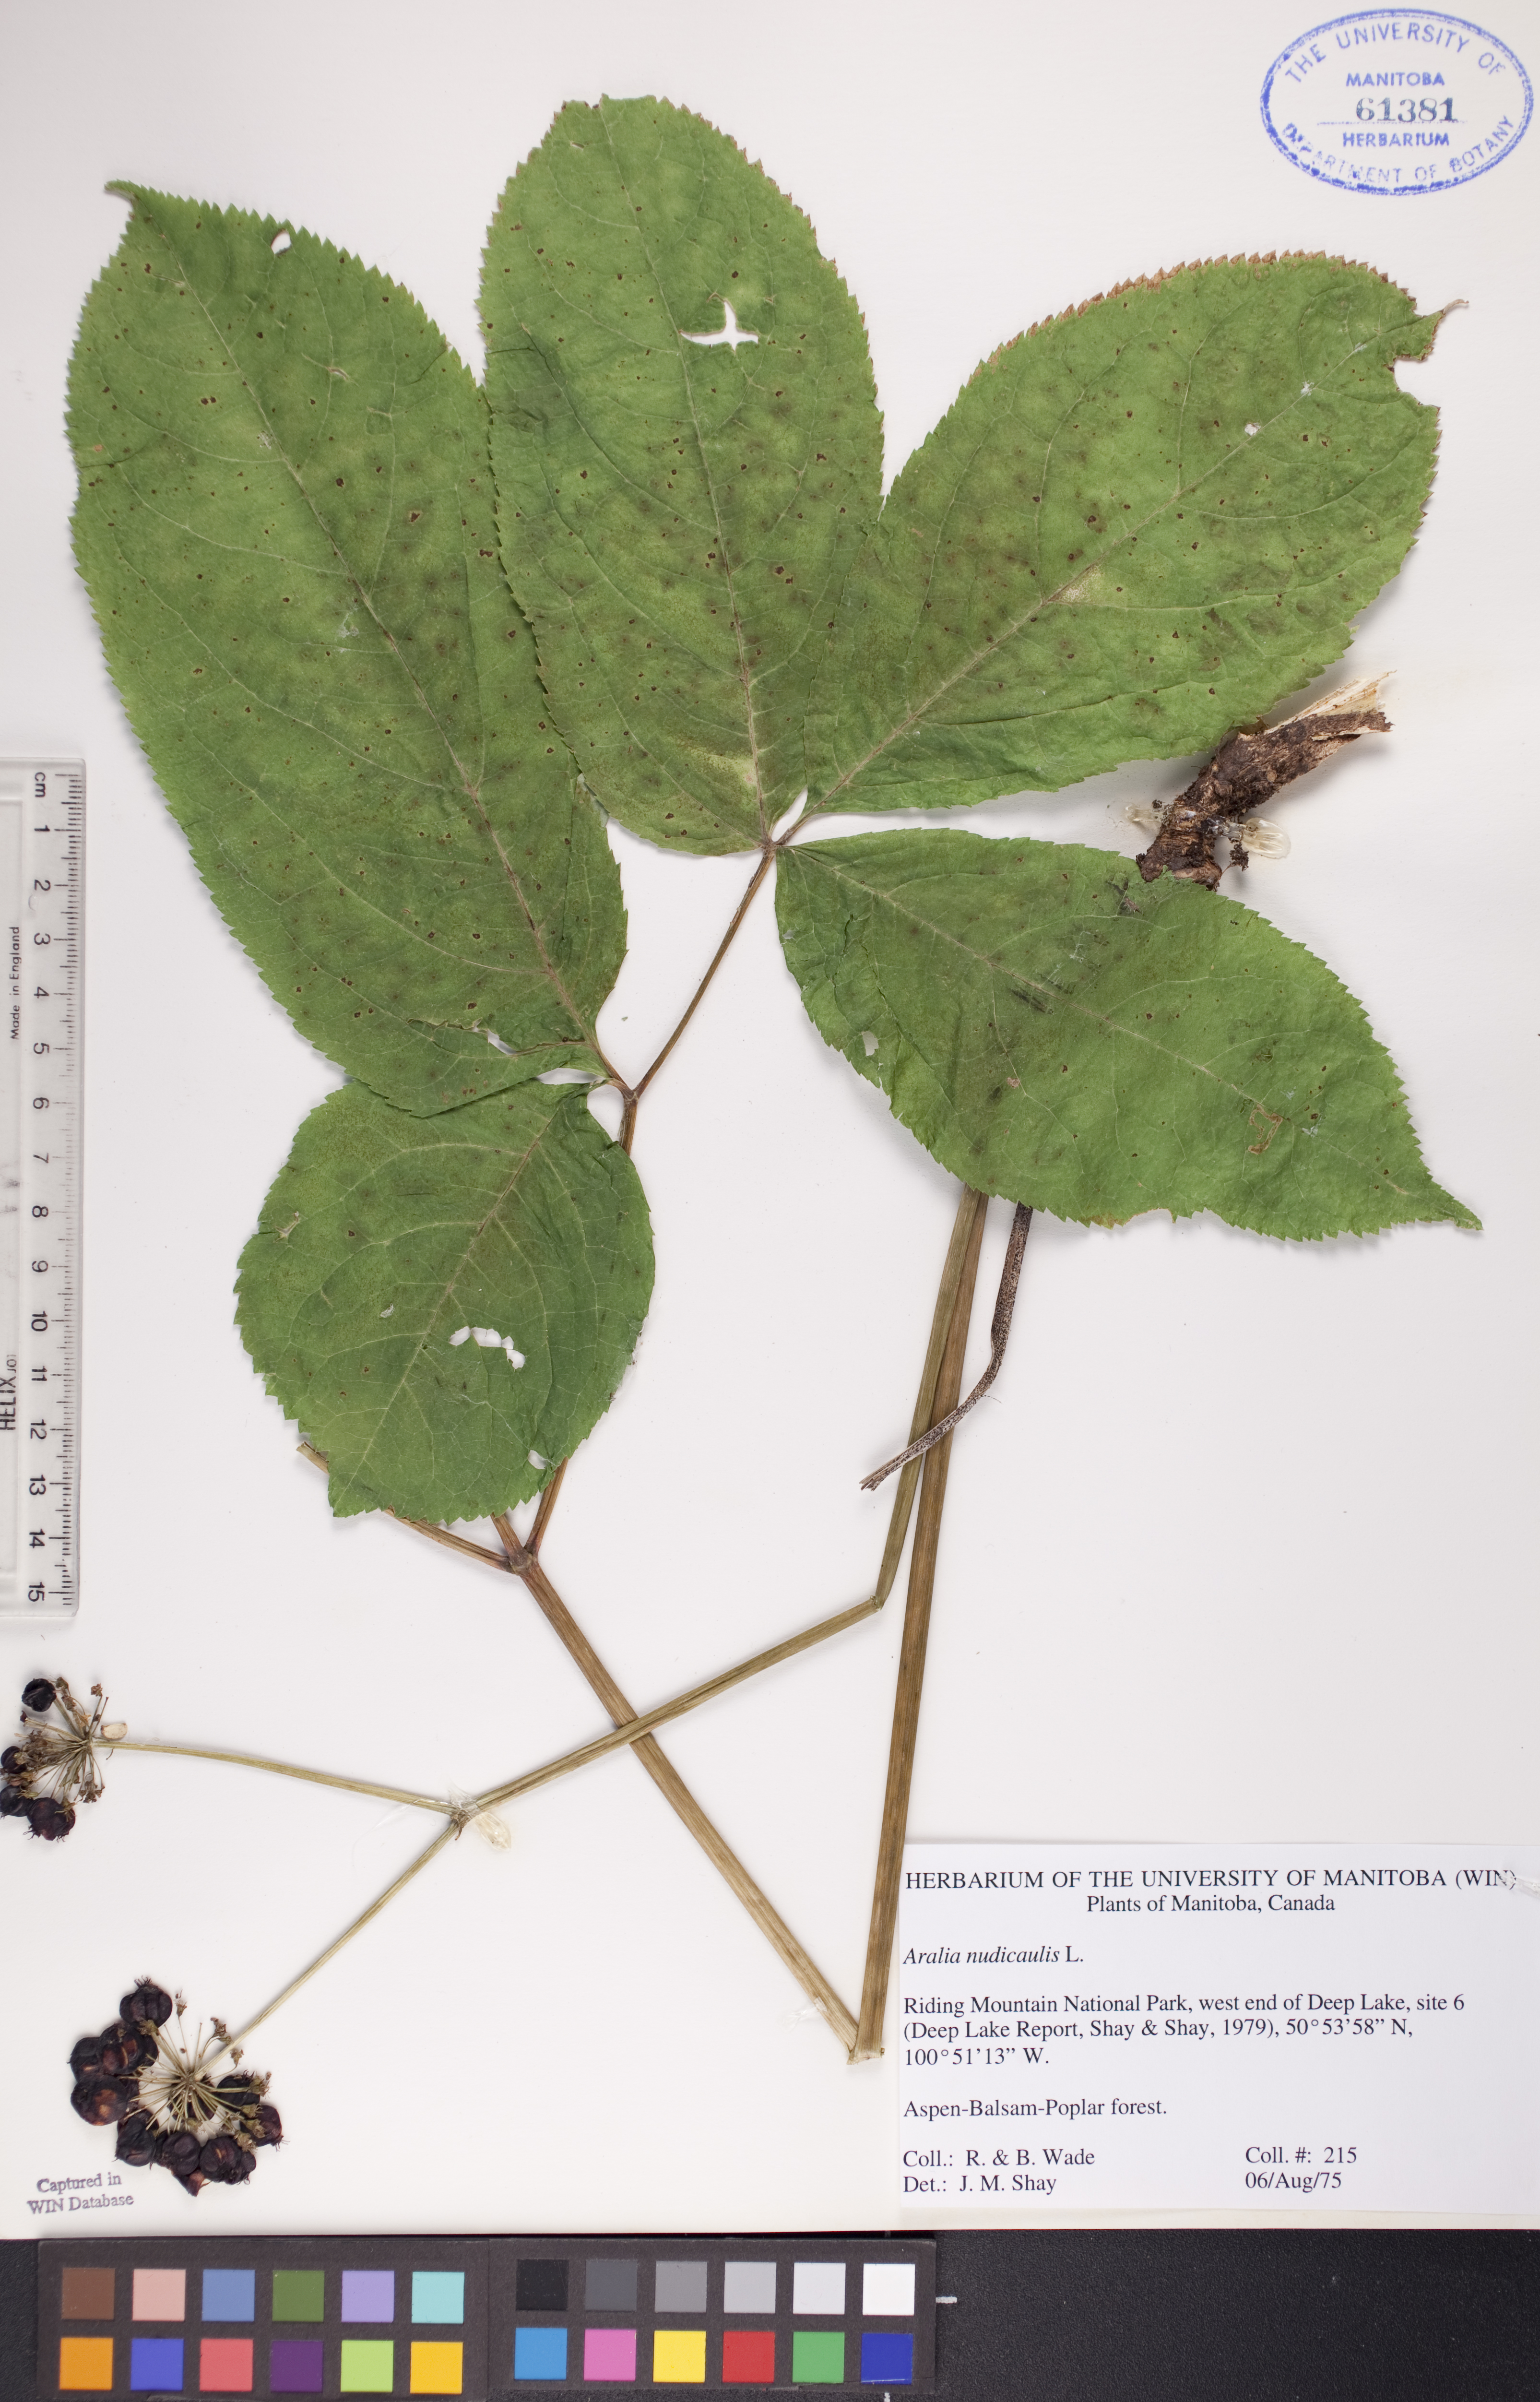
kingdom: Plantae
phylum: Tracheophyta
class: Magnoliopsida
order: Apiales
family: Araliaceae
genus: Aralia
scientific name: Aralia nudicaulis
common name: Wild sarsaparilla
